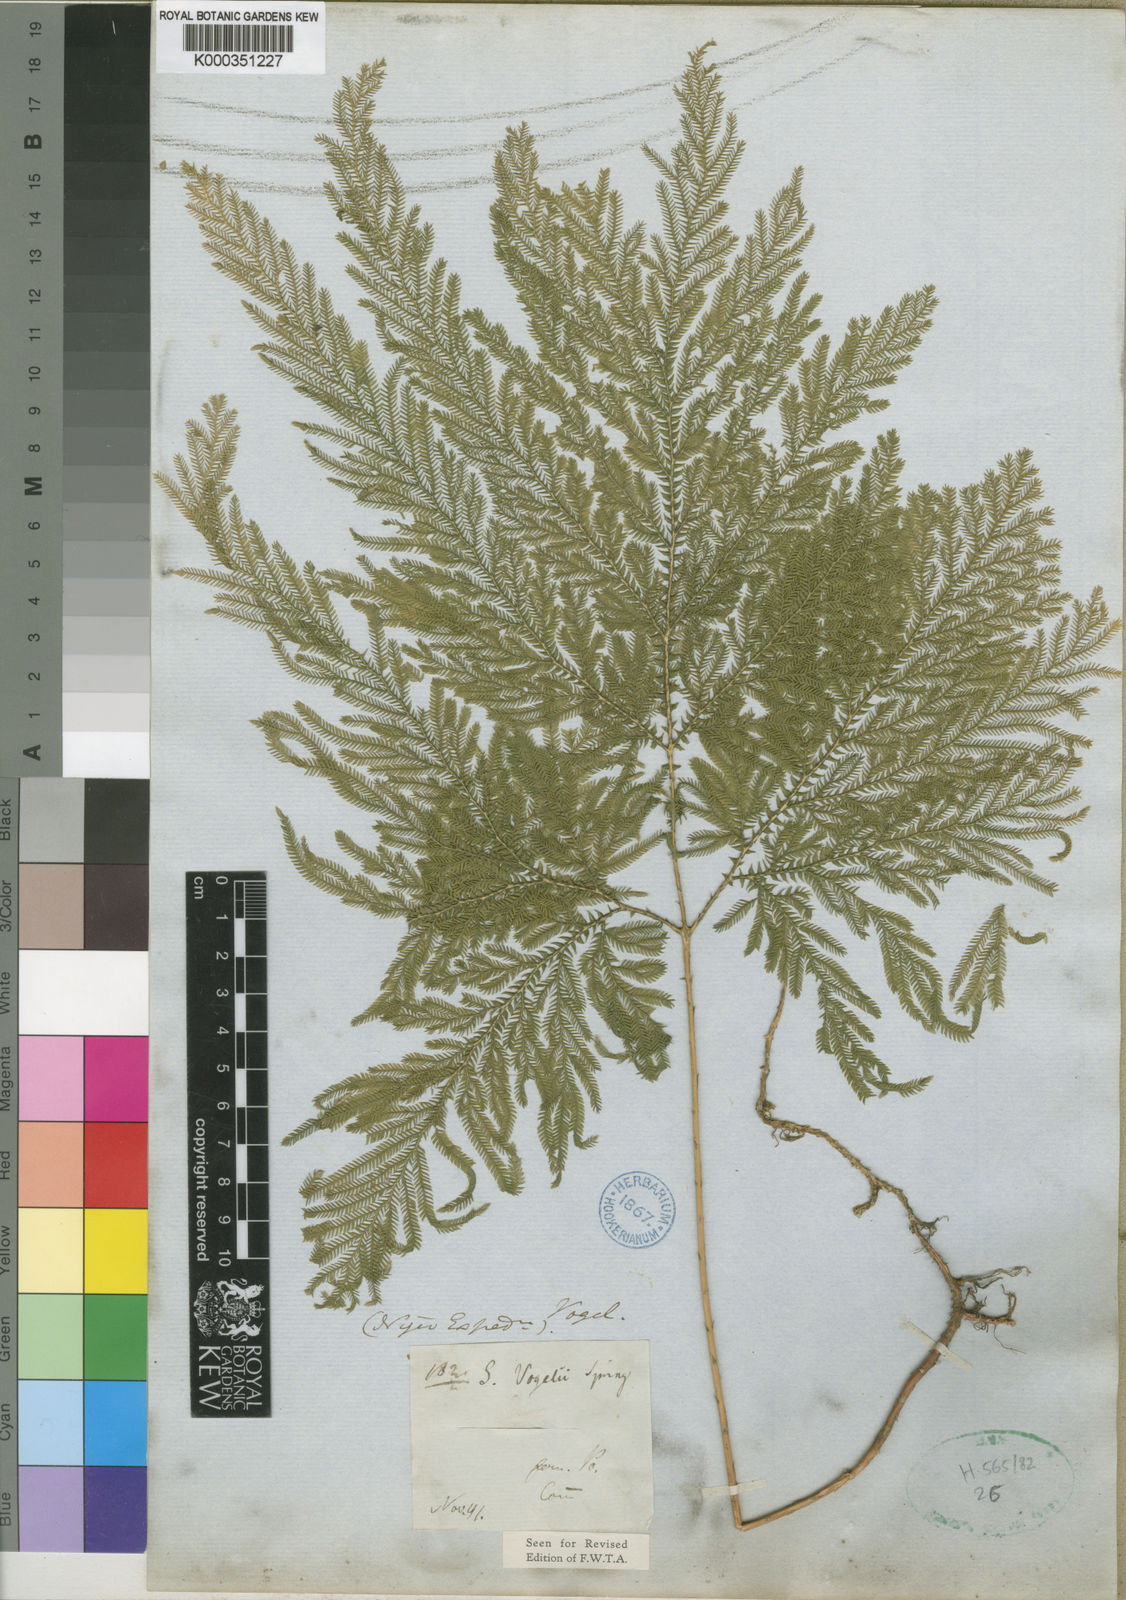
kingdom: Plantae
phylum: Tracheophyta
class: Lycopodiopsida
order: Selaginellales
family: Selaginellaceae
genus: Selaginella
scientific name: Selaginella vogelii
